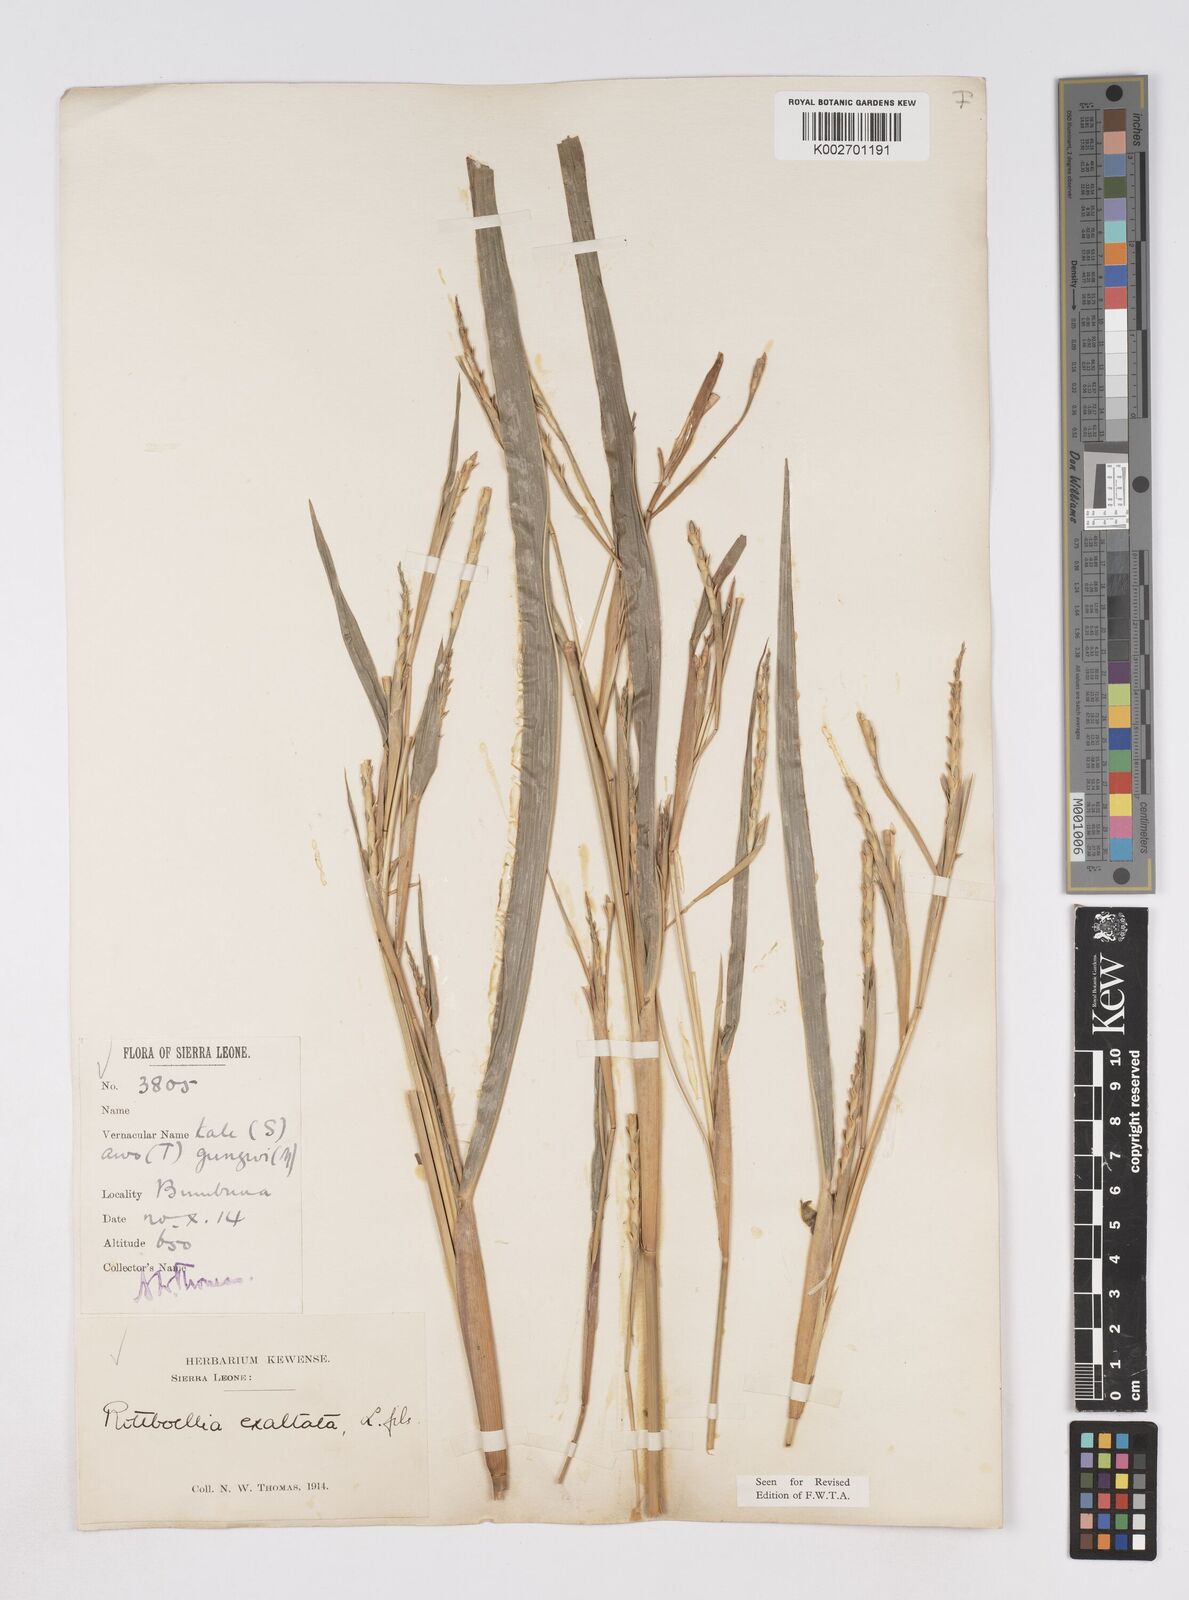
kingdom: Plantae
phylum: Tracheophyta
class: Liliopsida
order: Poales
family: Poaceae
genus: Ophiuros
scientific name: Ophiuros exaltatus
